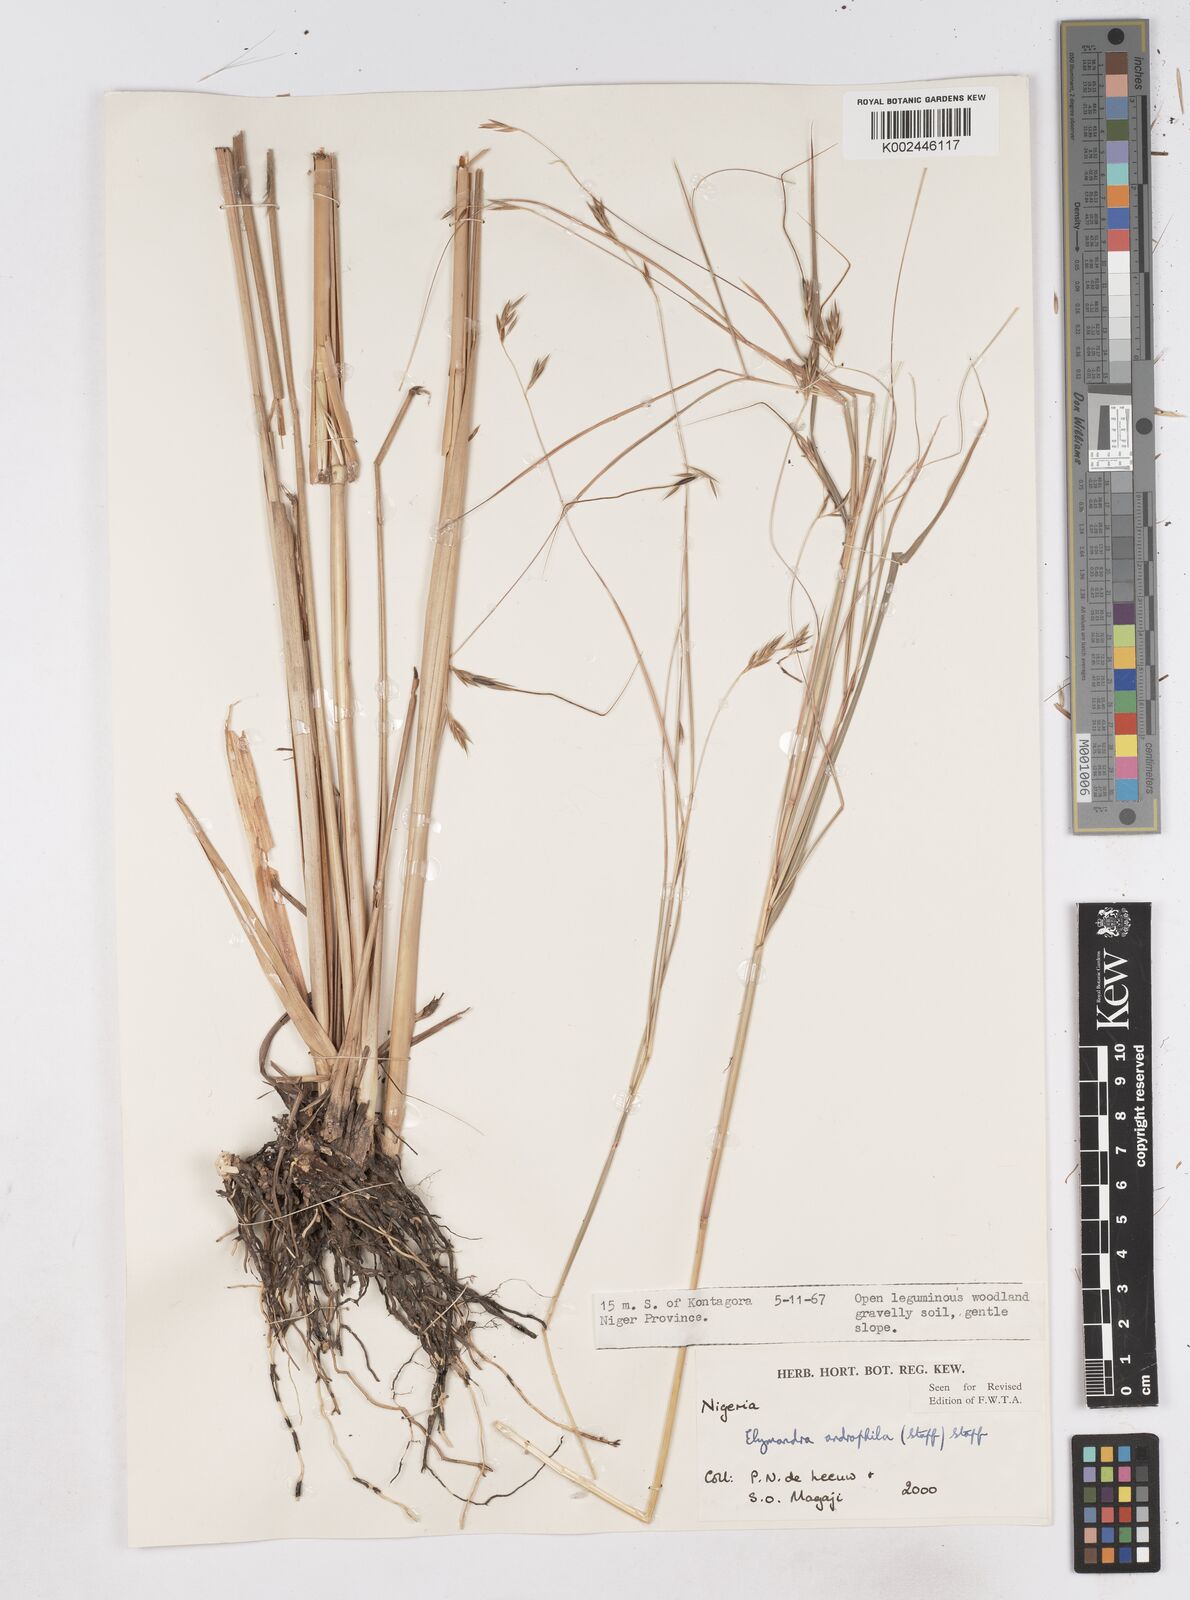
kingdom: Plantae
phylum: Tracheophyta
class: Liliopsida
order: Poales
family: Poaceae
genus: Elymandra
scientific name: Elymandra androphila
